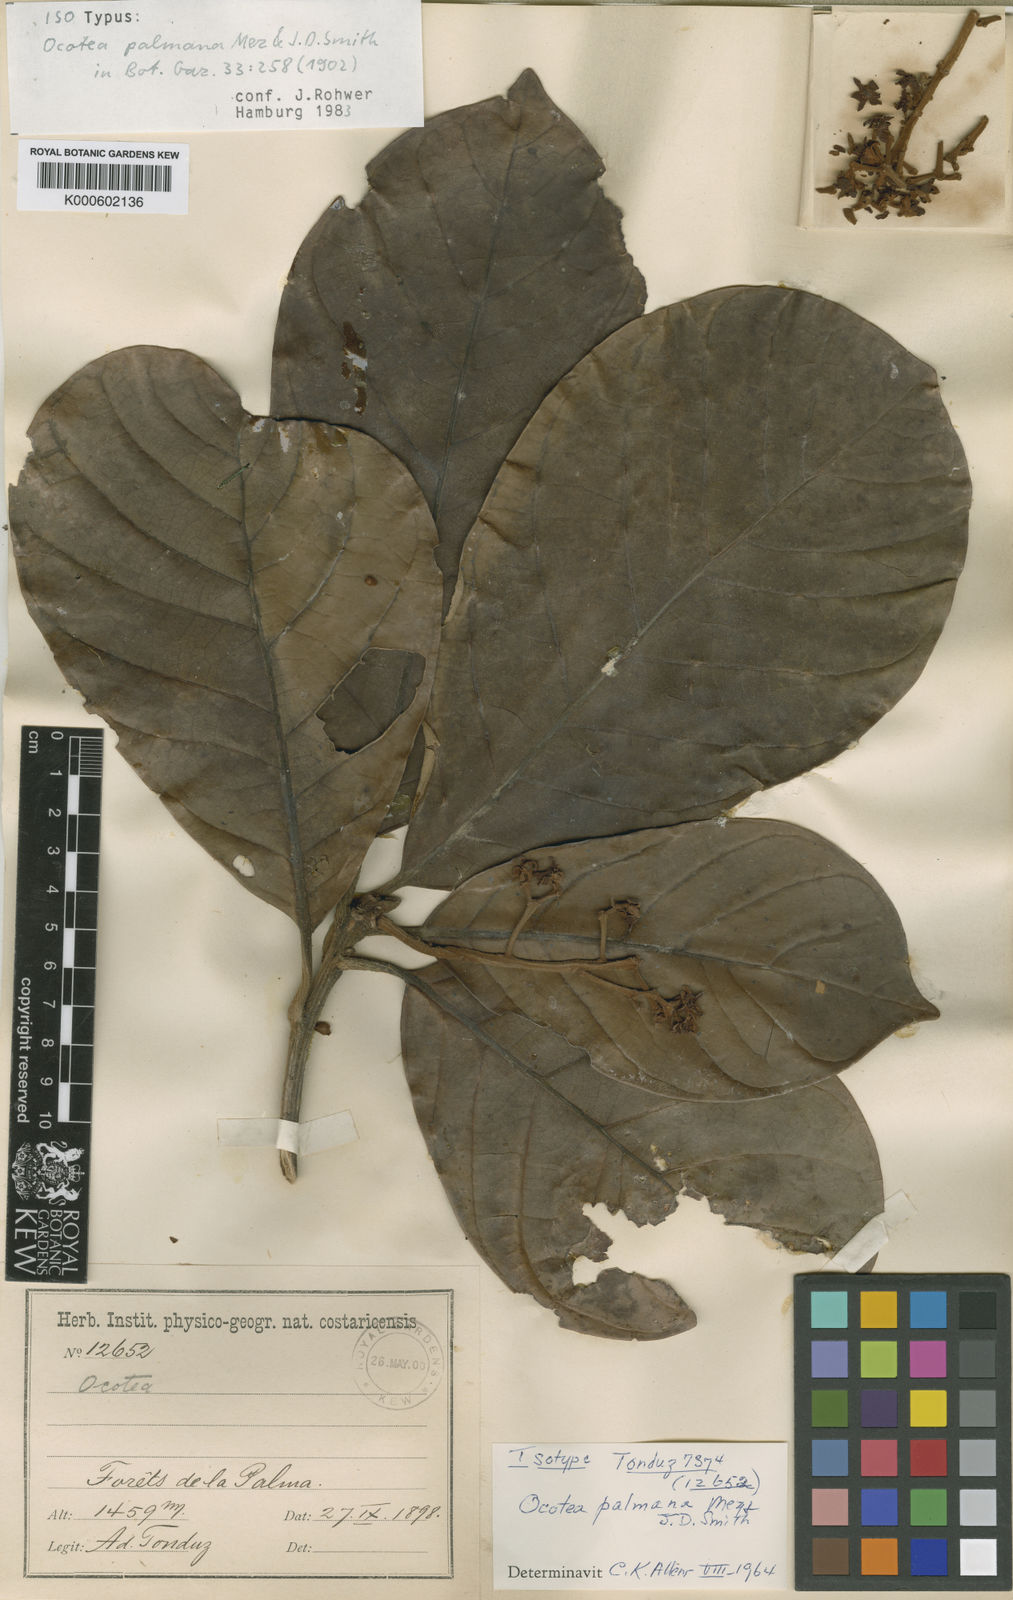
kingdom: Plantae
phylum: Tracheophyta
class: Magnoliopsida
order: Laurales
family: Lauraceae
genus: Pleurothyrium
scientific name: Pleurothyrium palmanum
